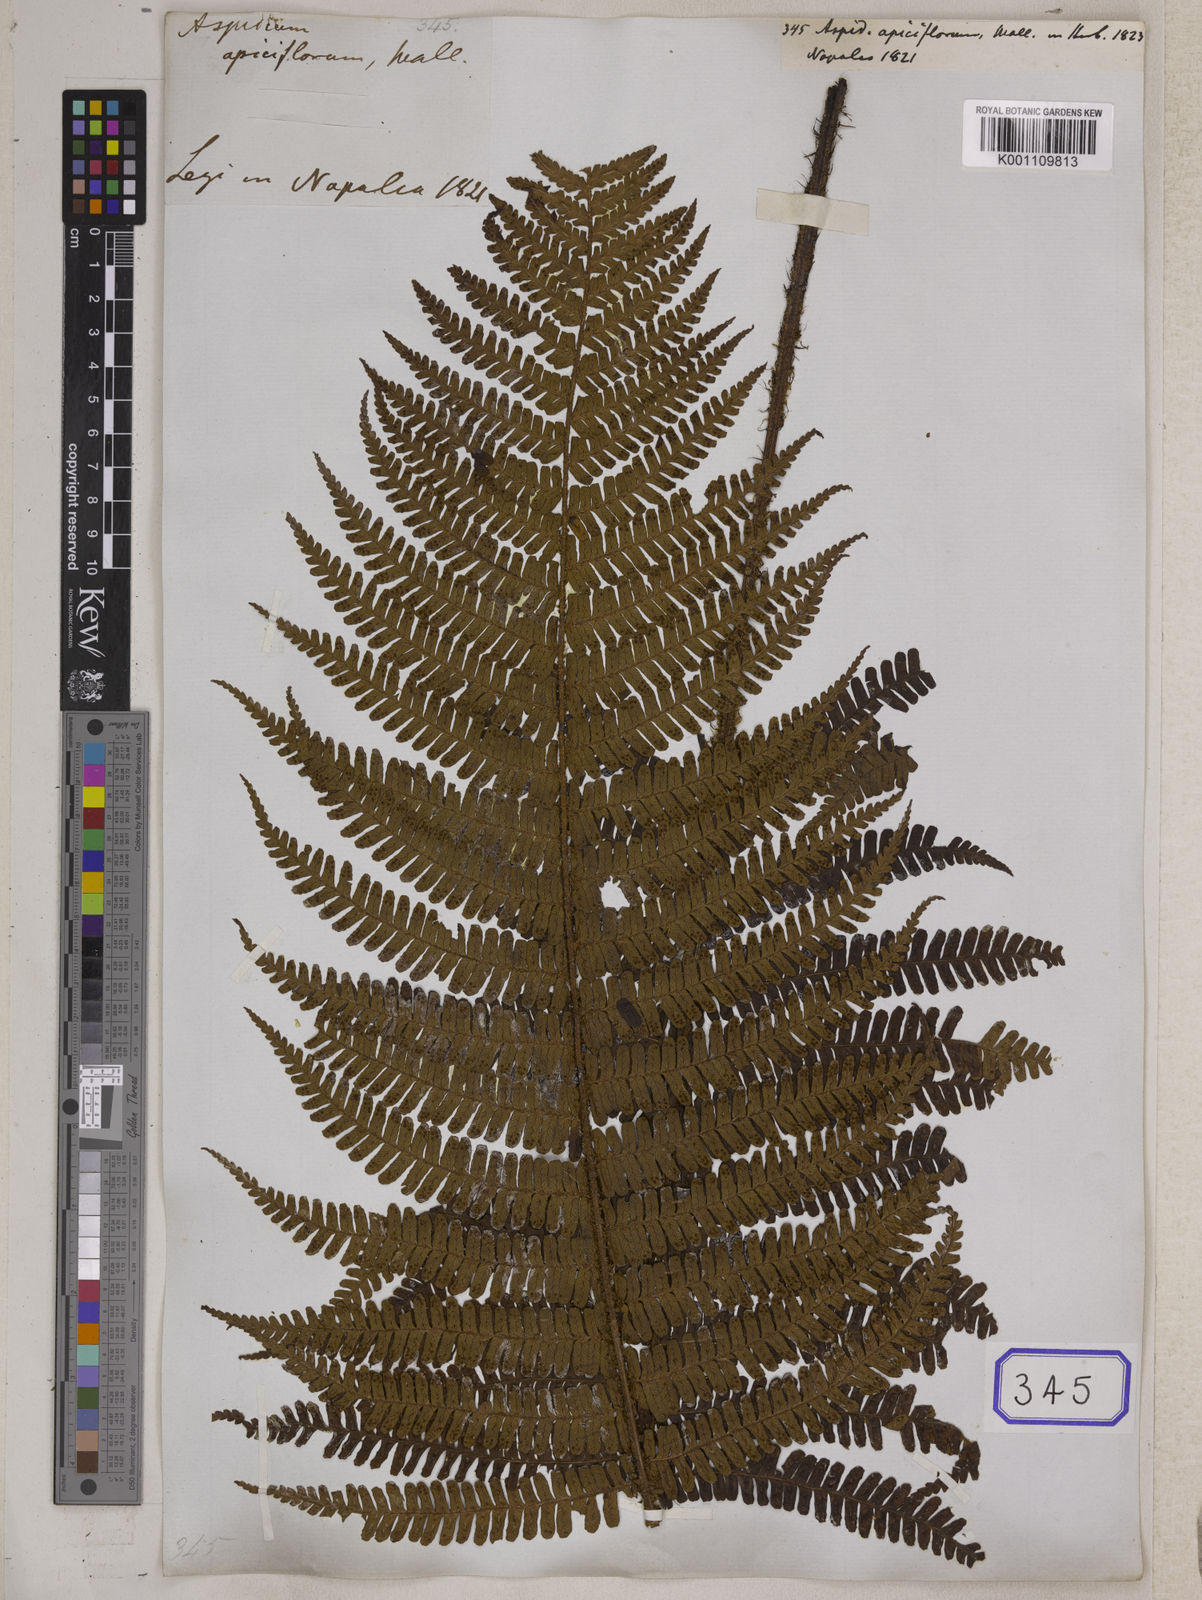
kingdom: Plantae
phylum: Tracheophyta
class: Polypodiopsida
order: Polypodiales
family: Dryopteridaceae
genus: Dryopteris
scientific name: Dryopteris apiciflora
